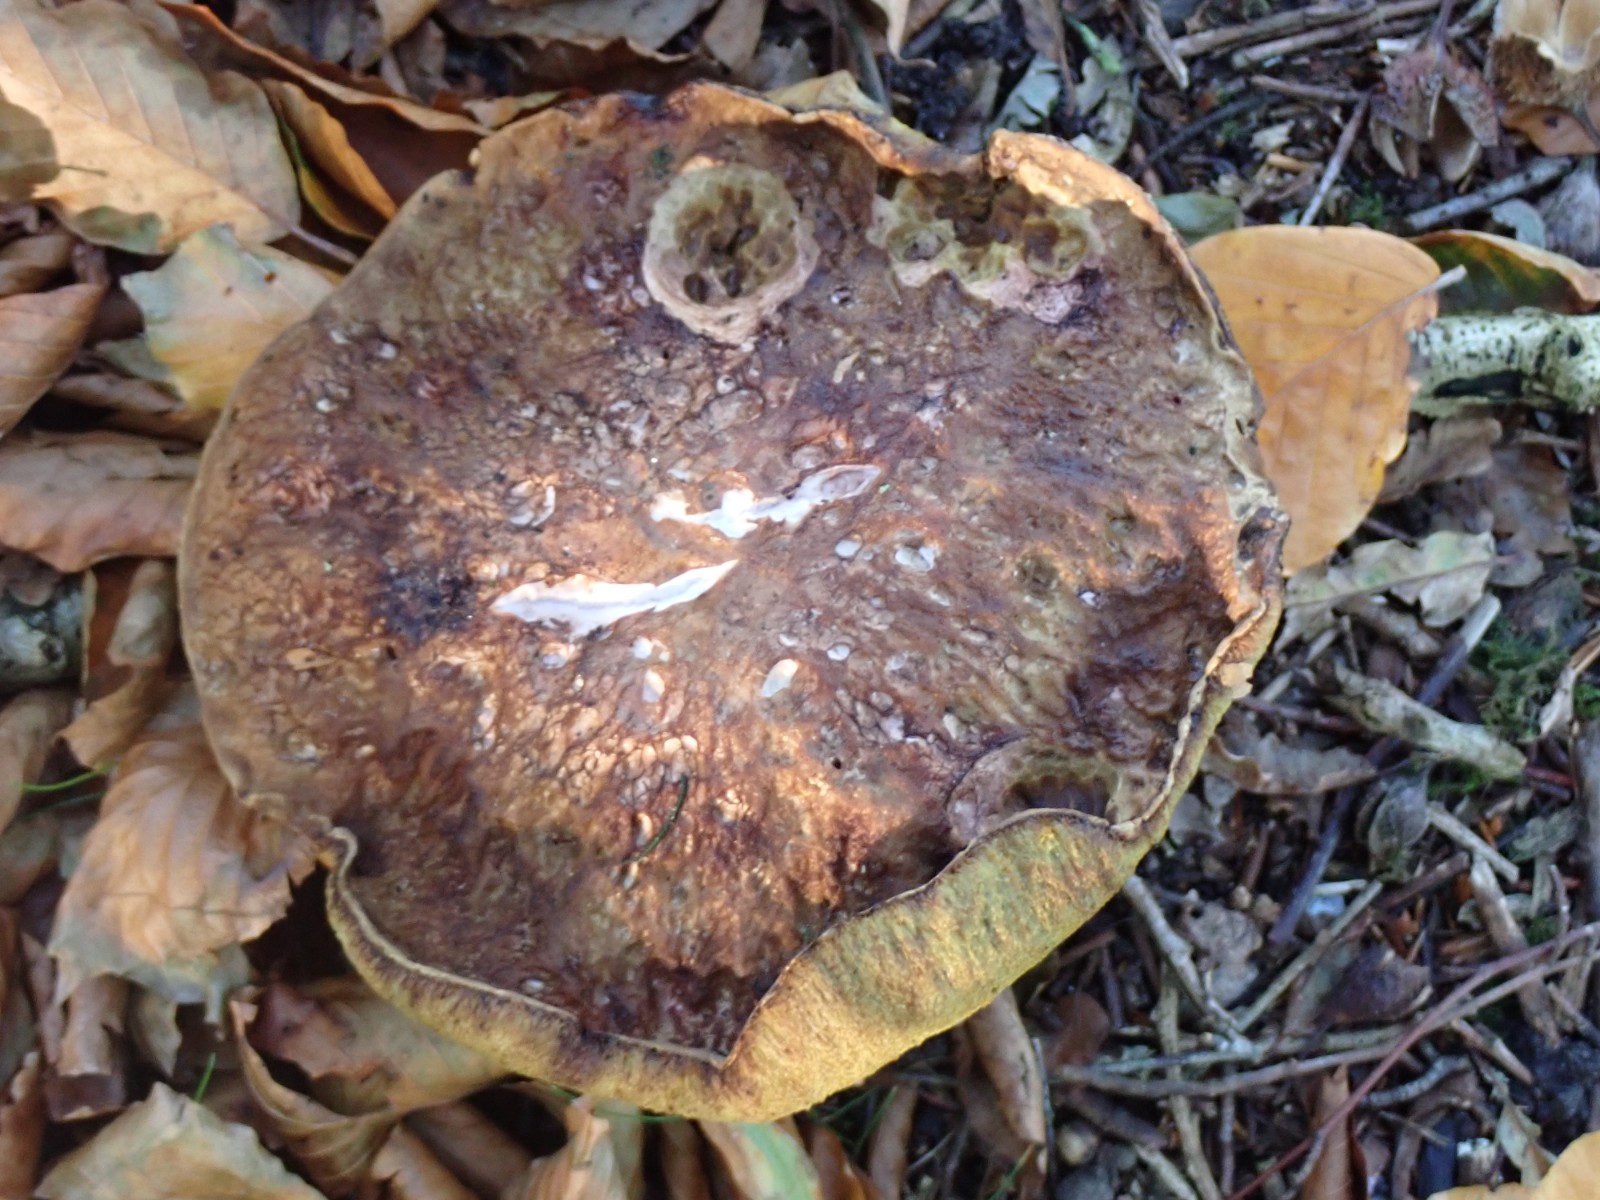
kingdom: Fungi
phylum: Basidiomycota
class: Agaricomycetes
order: Boletales
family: Boletaceae
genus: Boletus
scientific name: Boletus edulis
